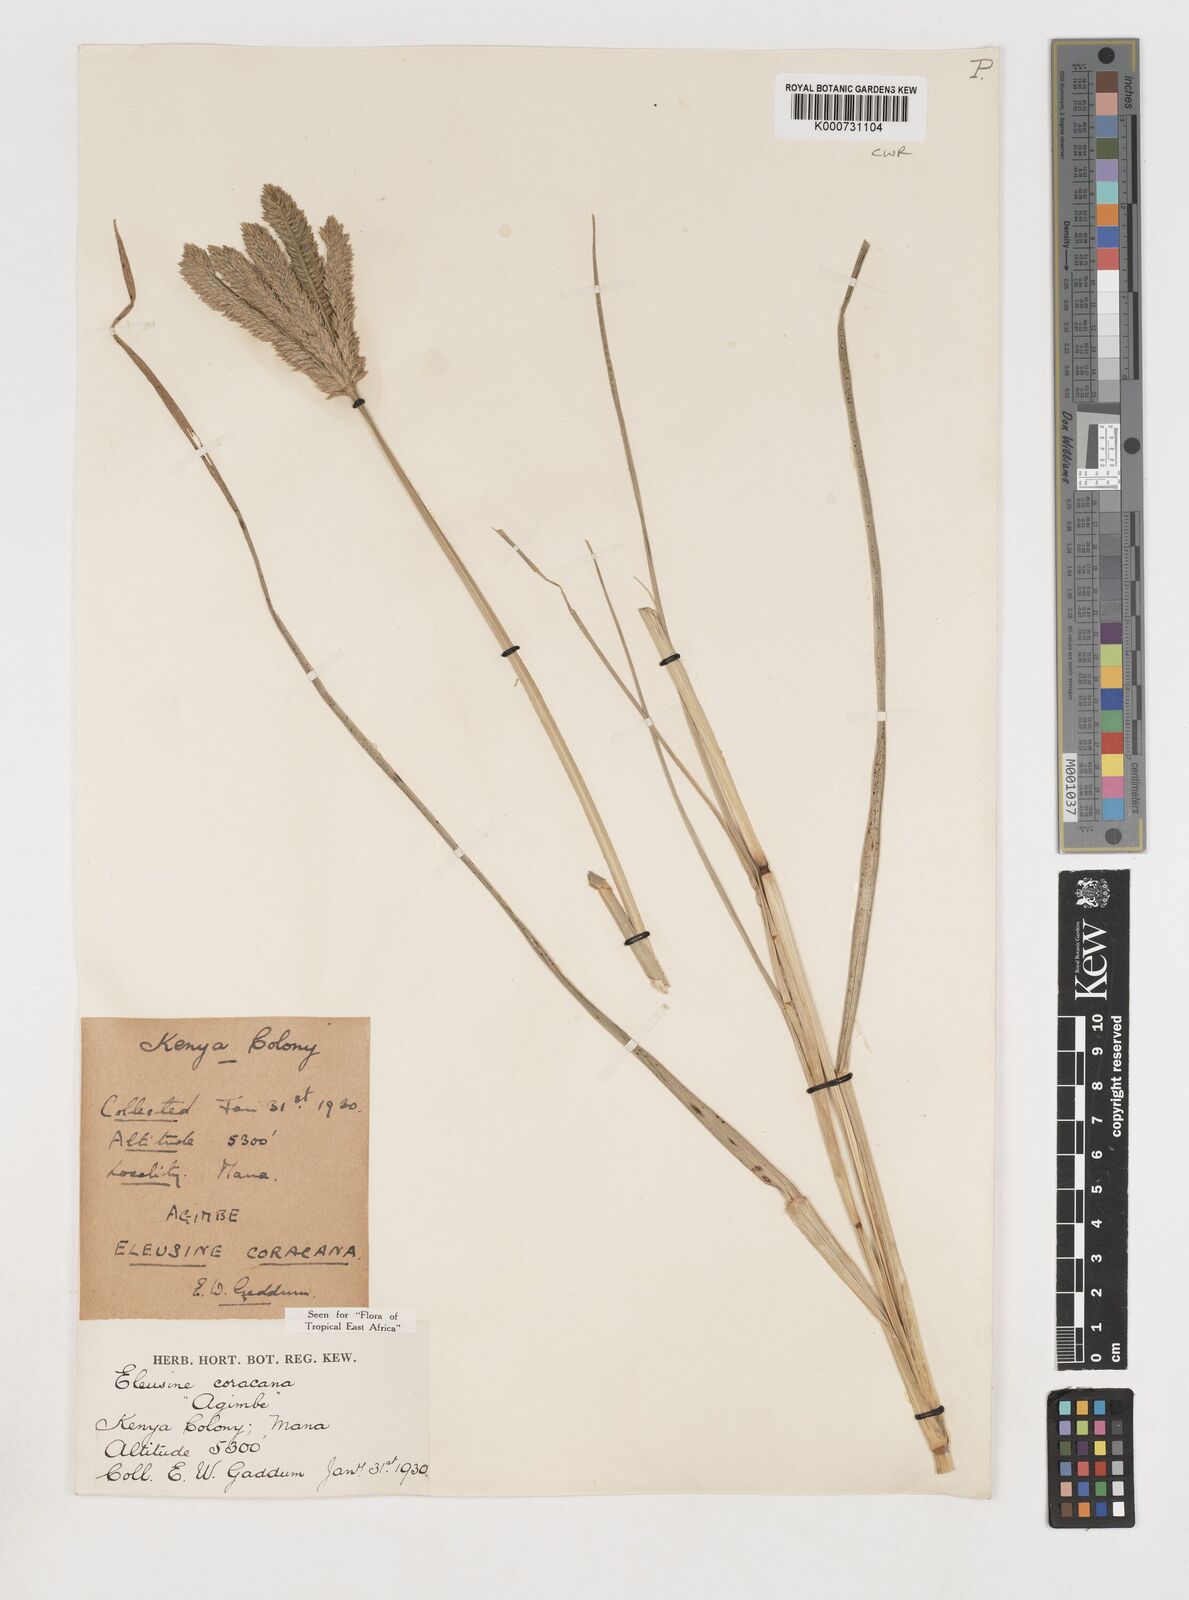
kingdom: Plantae
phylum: Tracheophyta
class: Liliopsida
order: Poales
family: Poaceae
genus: Eleusine
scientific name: Eleusine coracana
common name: Finger millet
